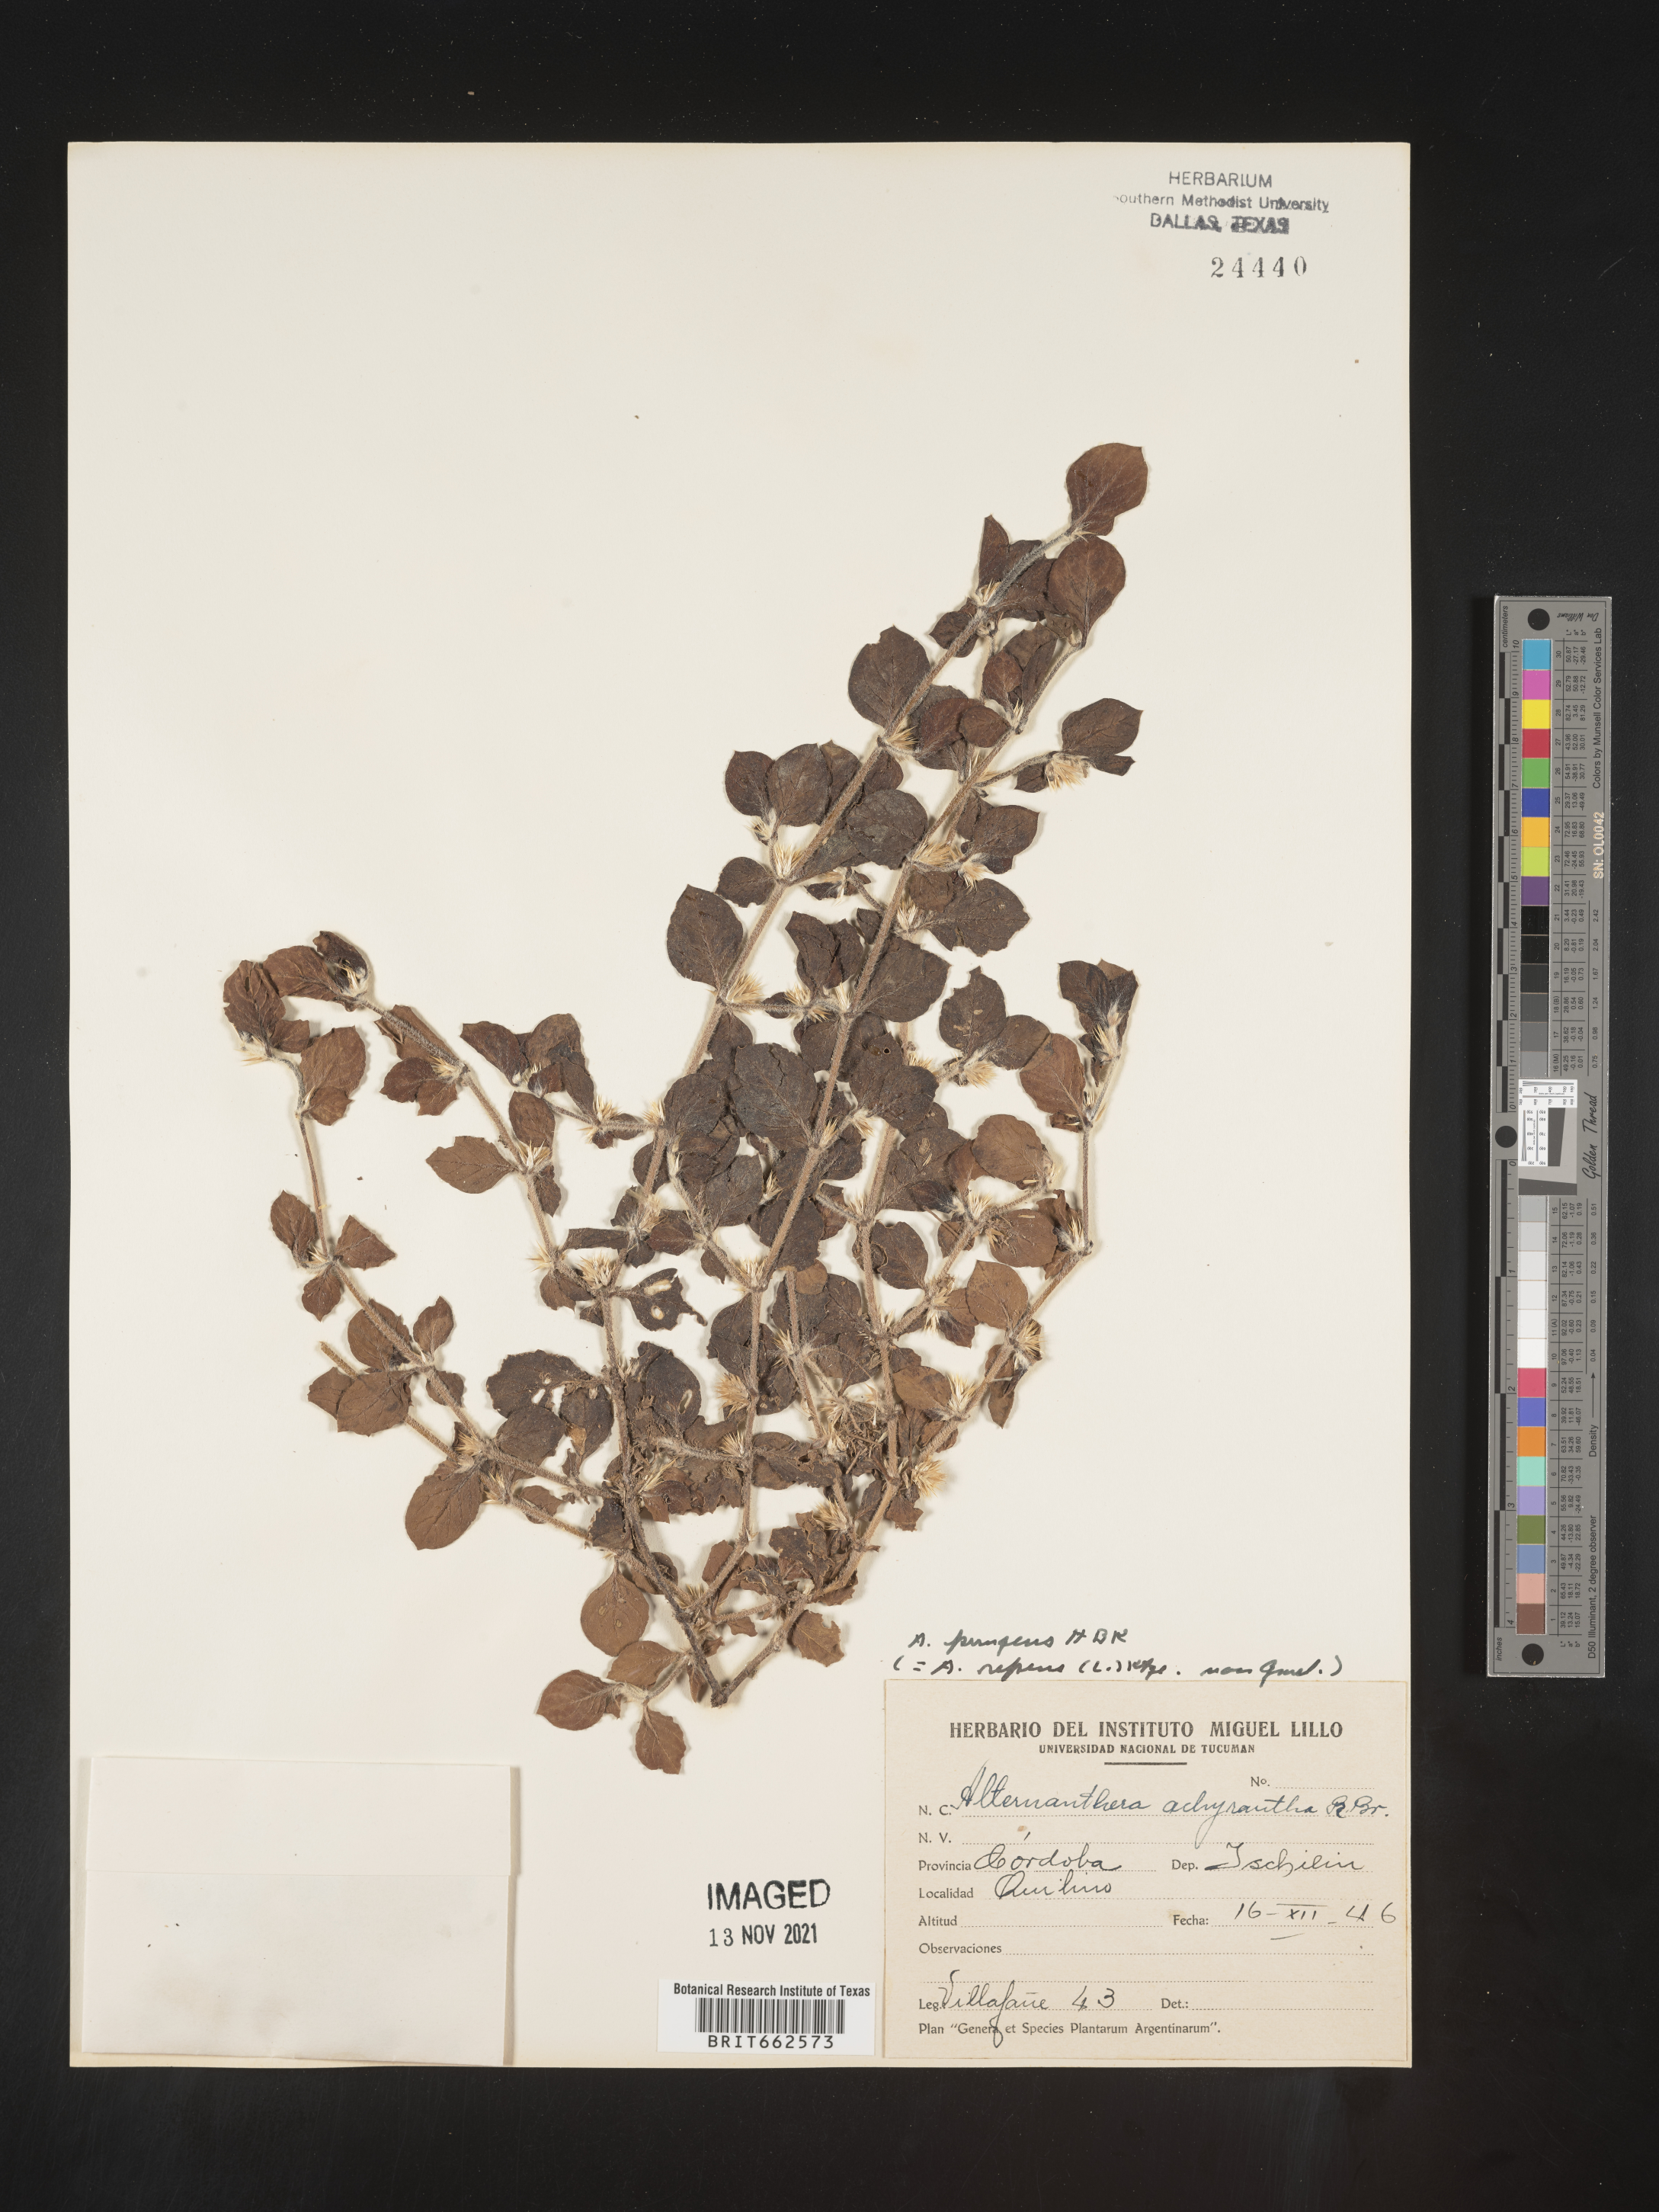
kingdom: Plantae
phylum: Tracheophyta
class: Magnoliopsida
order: Caryophyllales
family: Amaranthaceae
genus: Alternanthera
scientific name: Alternanthera
